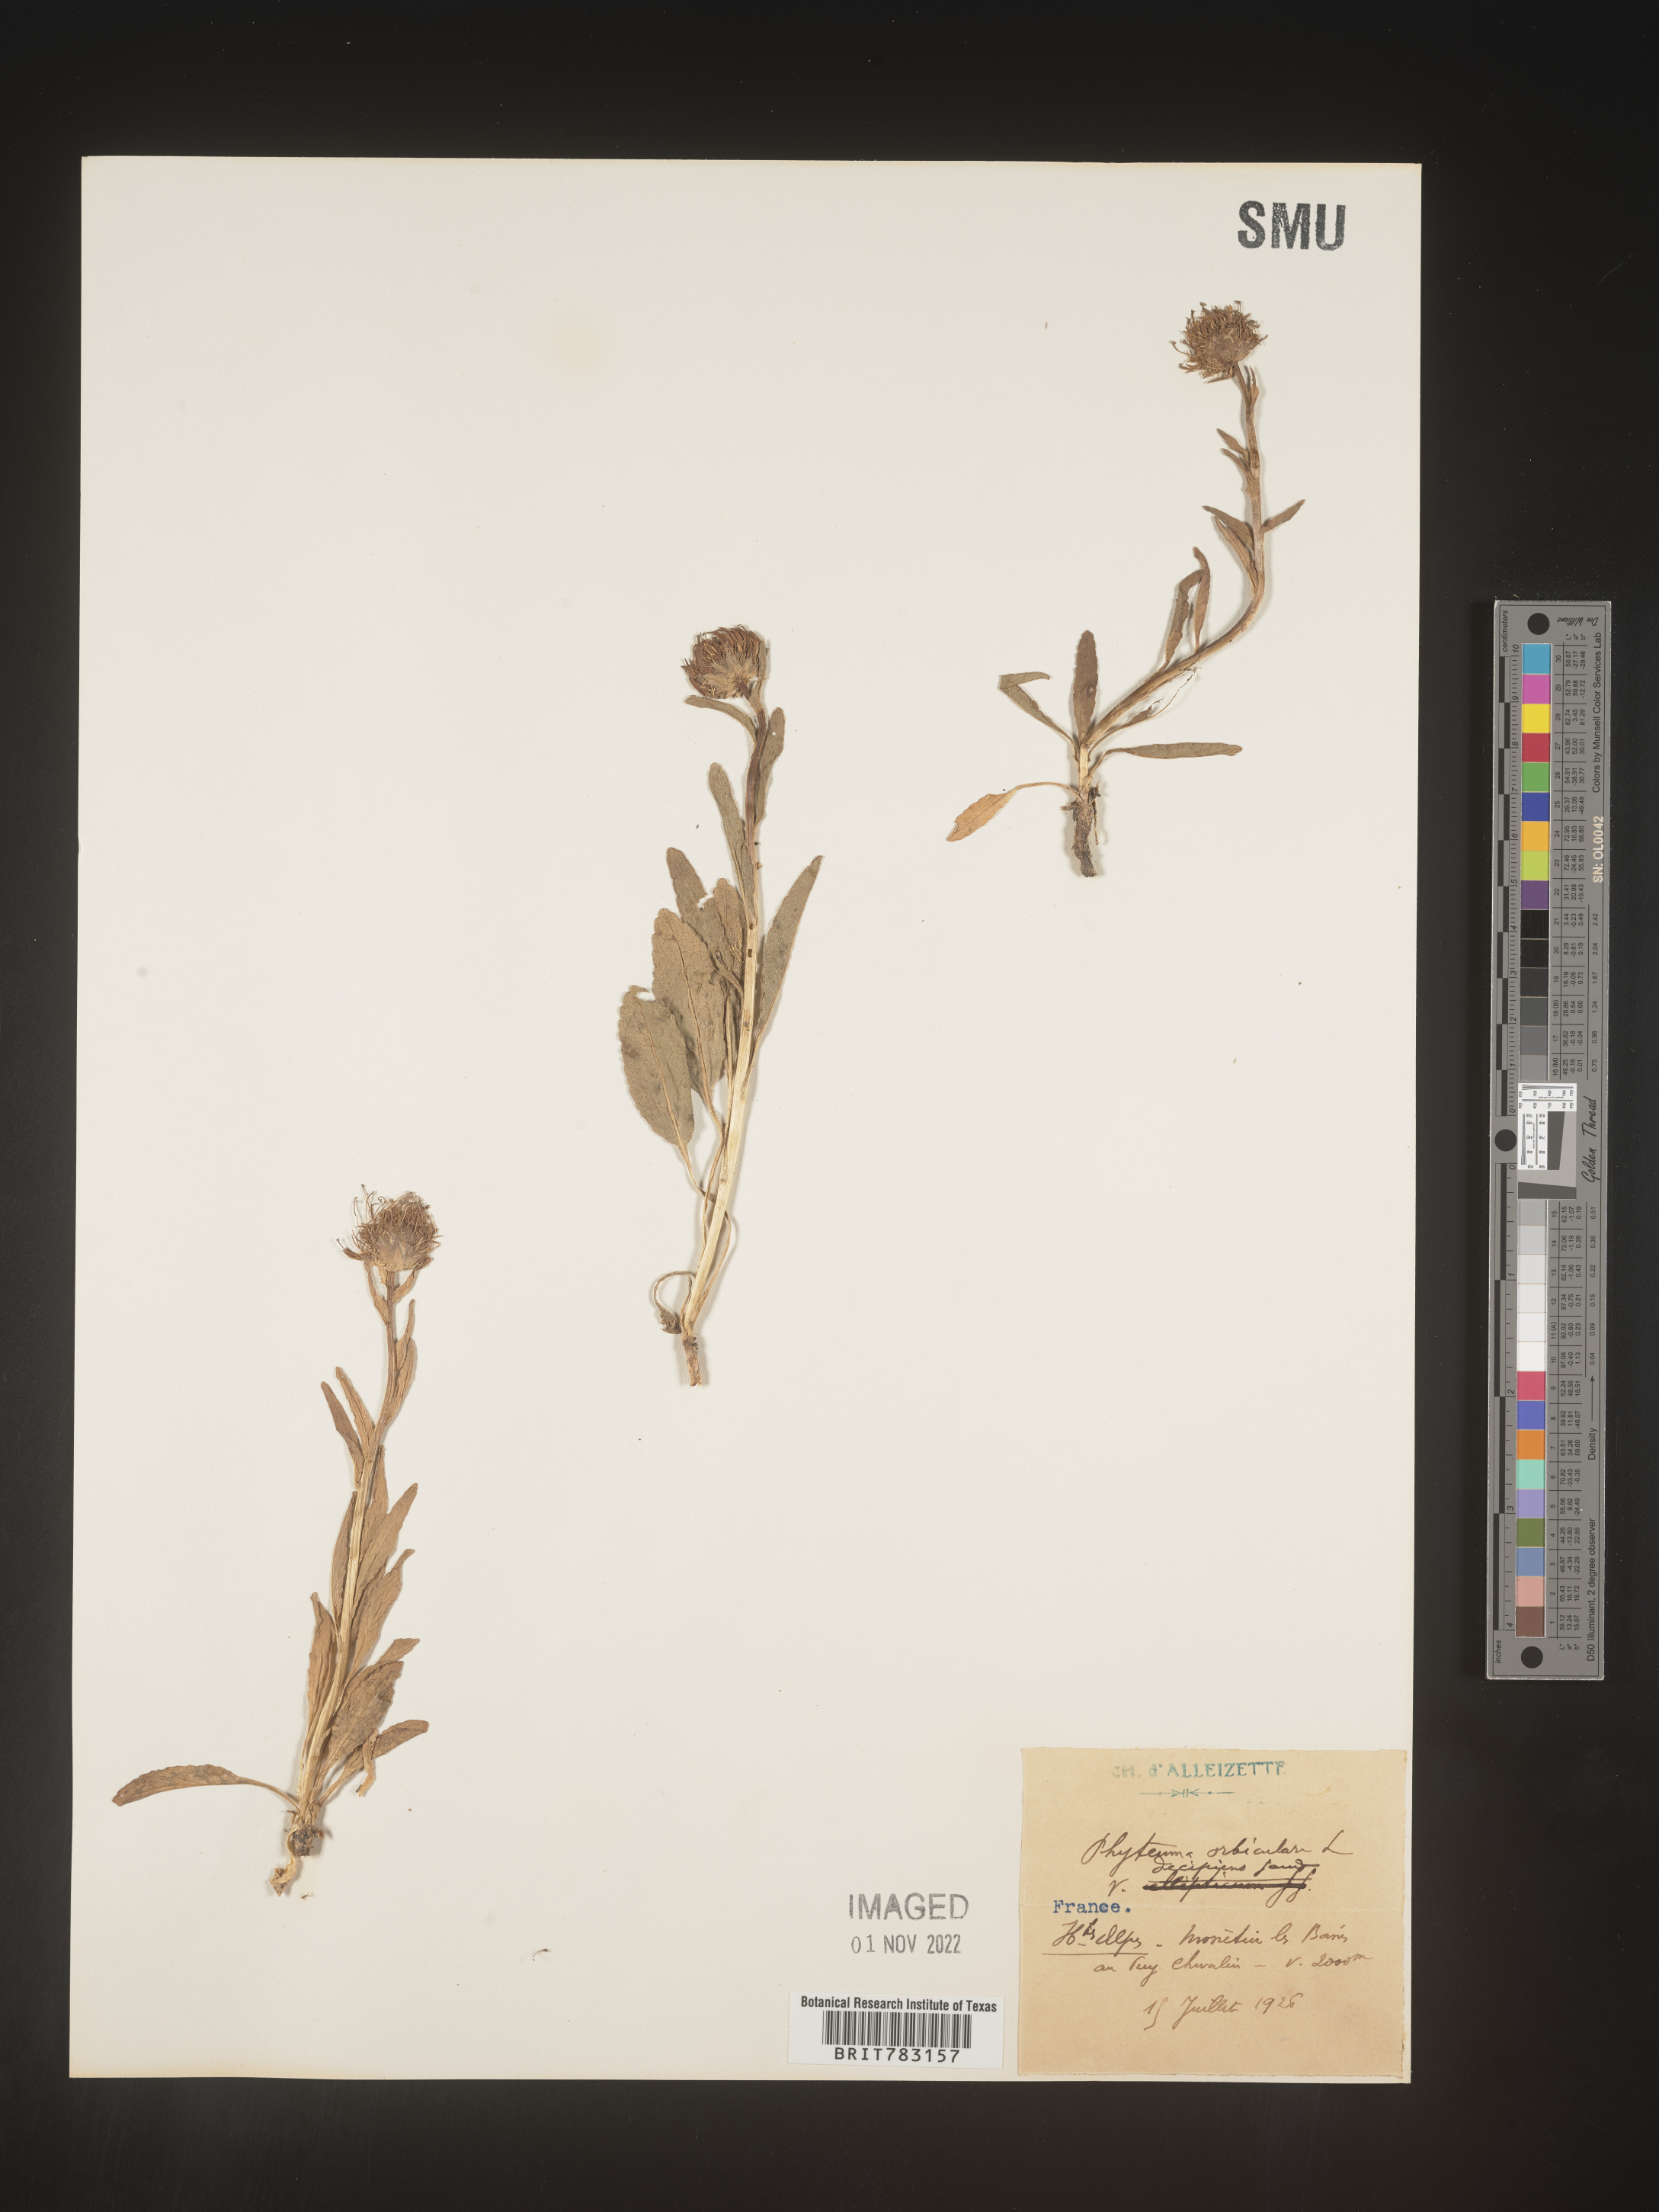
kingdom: Plantae
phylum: Tracheophyta
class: Magnoliopsida
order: Asterales
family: Campanulaceae
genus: Phyteuma
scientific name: Phyteuma
